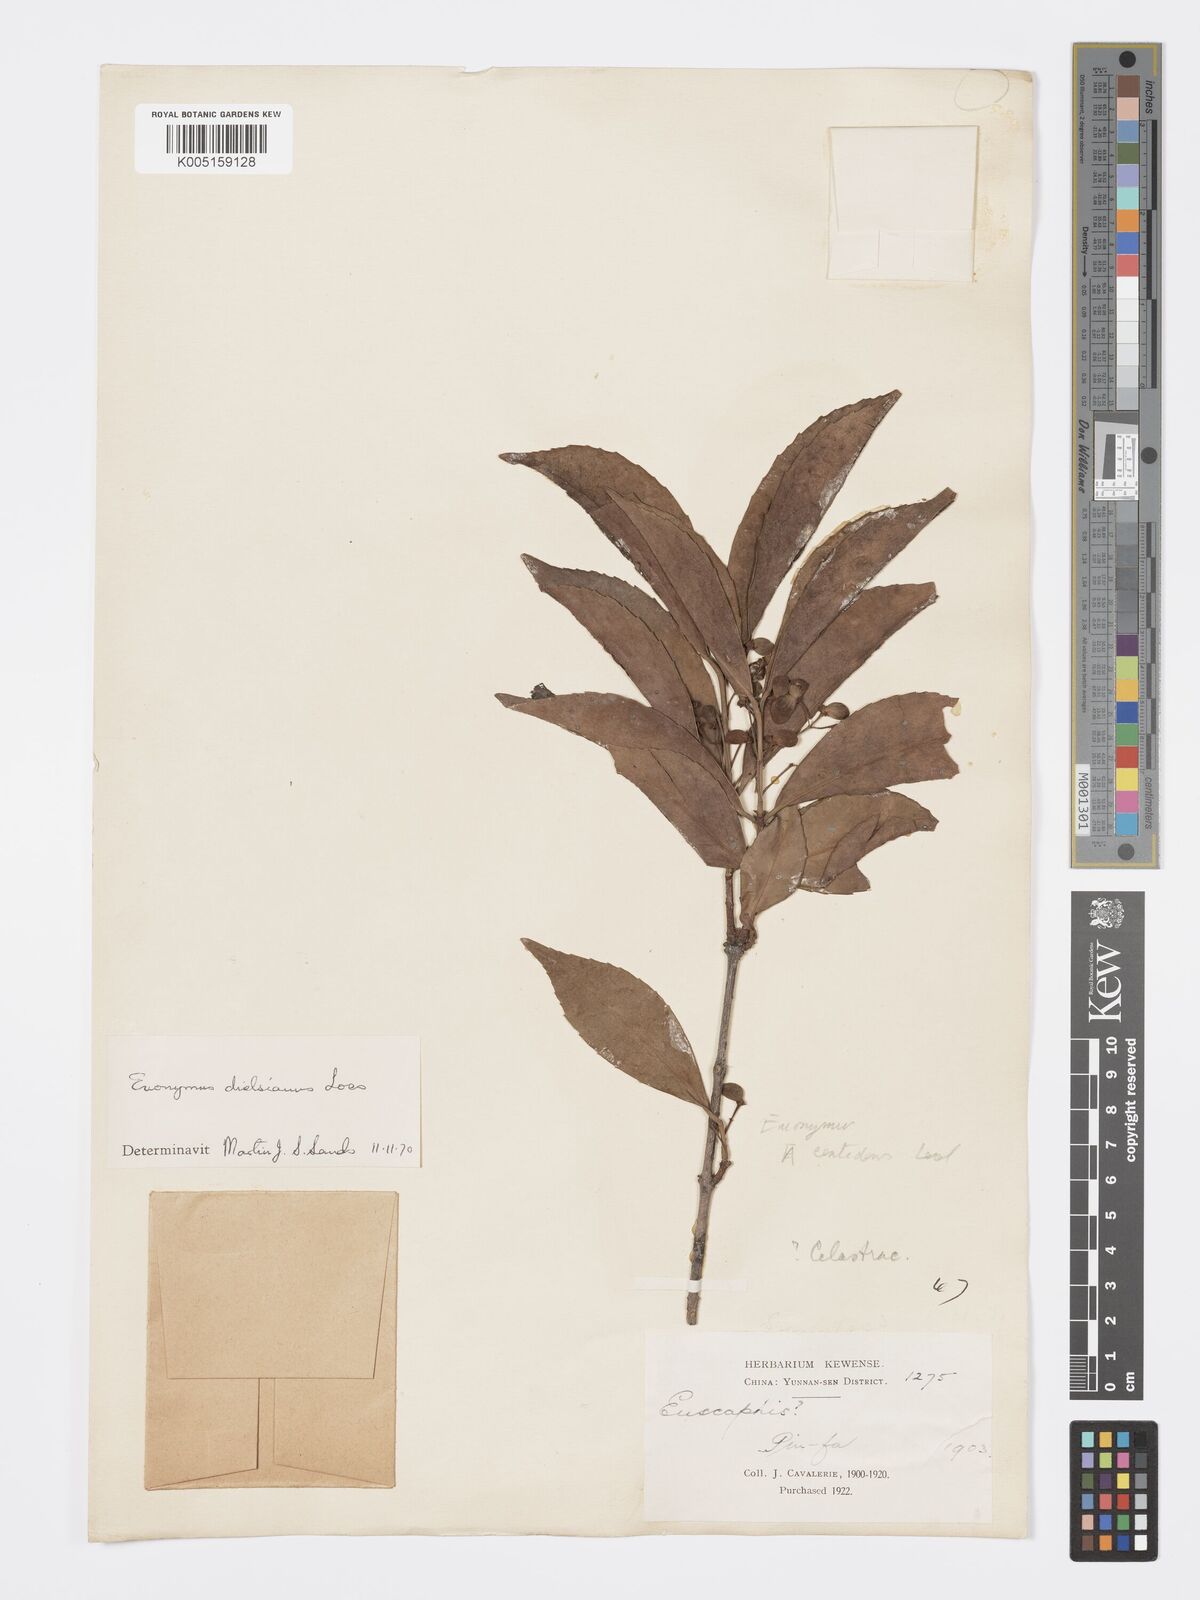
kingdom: Plantae
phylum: Tracheophyta
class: Magnoliopsida
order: Celastrales
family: Celastraceae
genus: Euonymus
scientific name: Euonymus dielsianus
